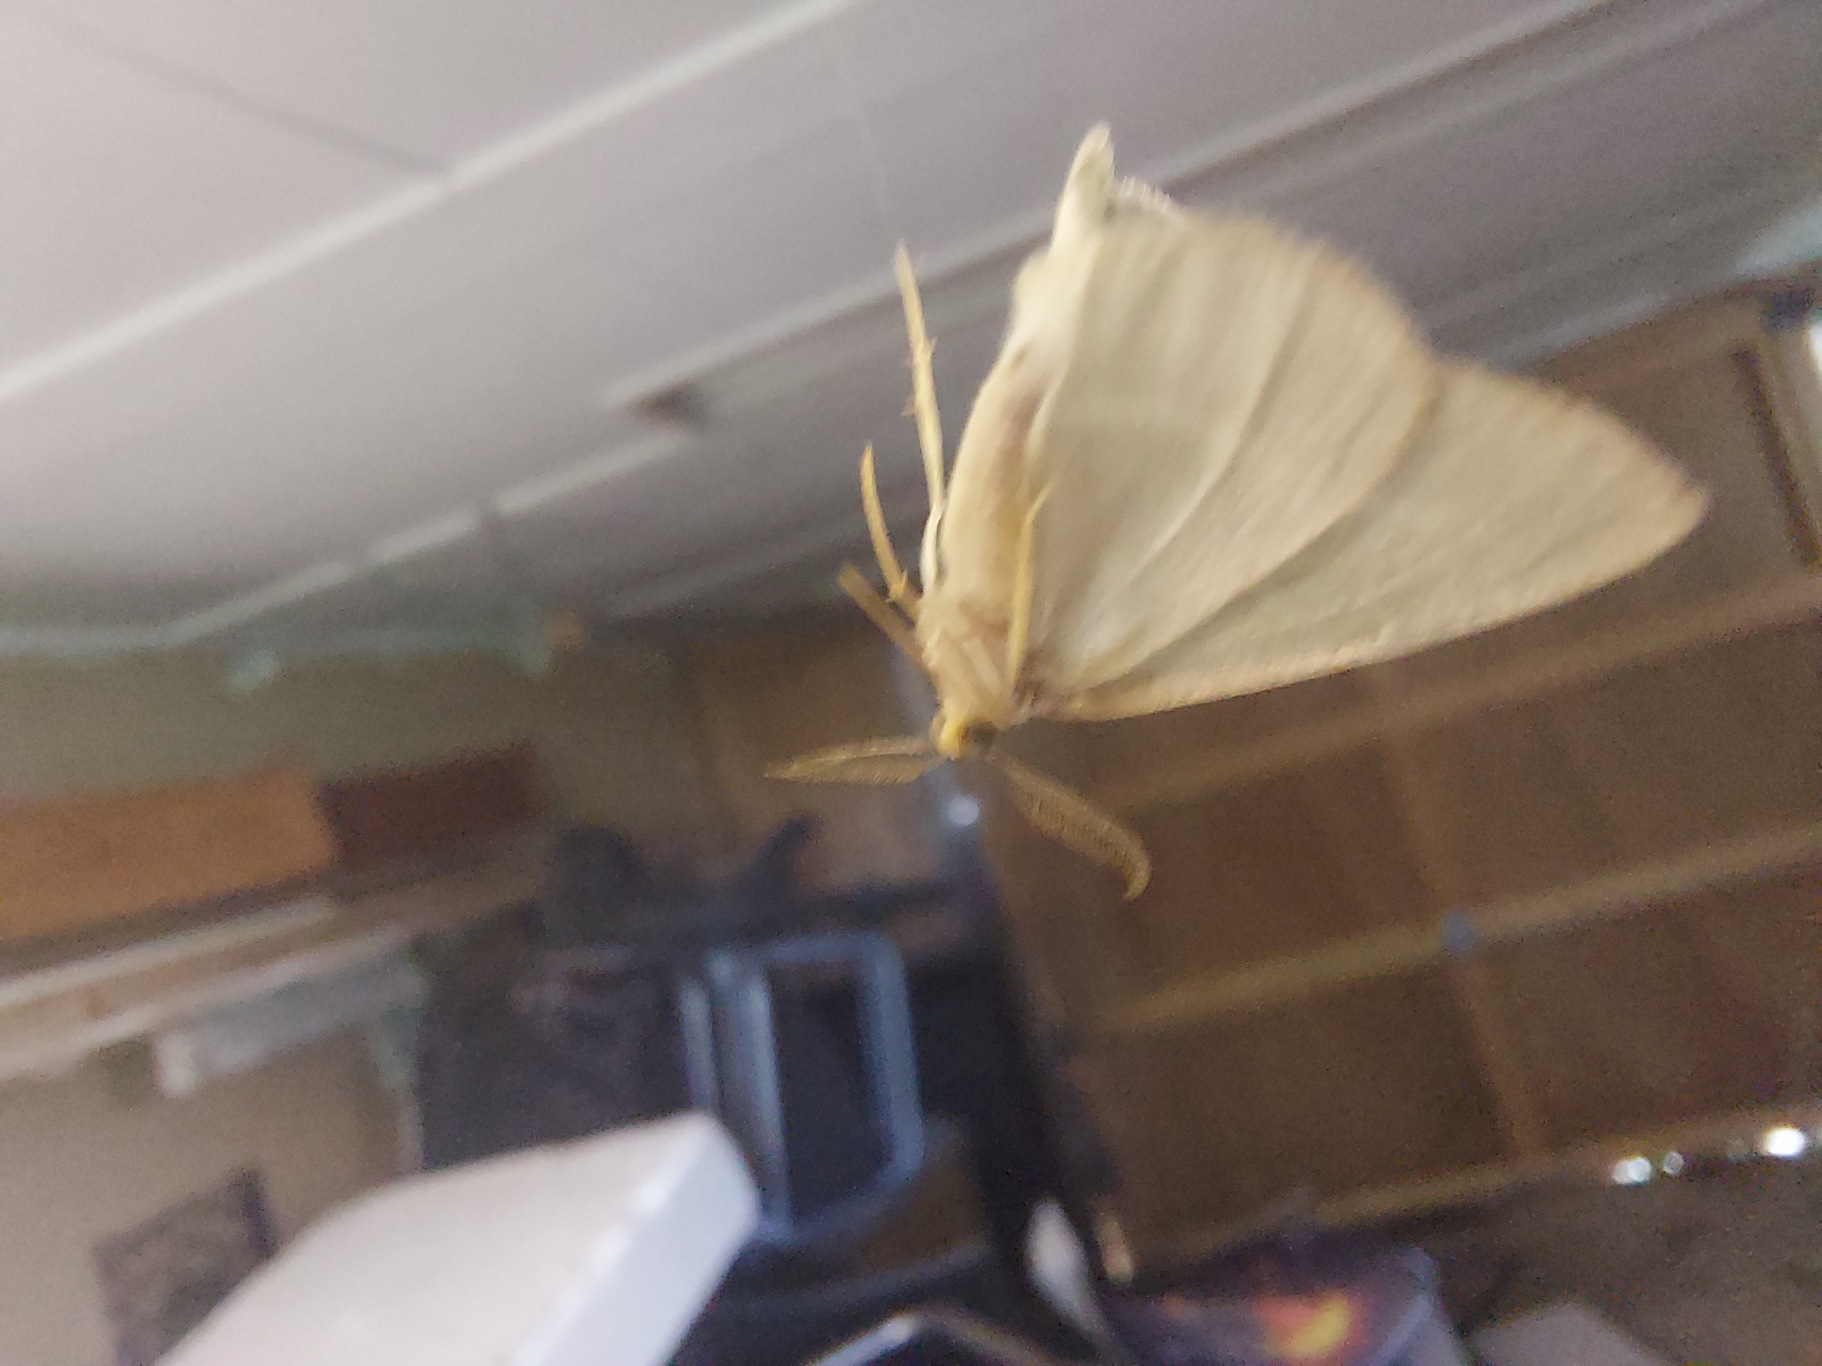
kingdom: Animalia
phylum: Arthropoda
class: Insecta
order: Lepidoptera
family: Geometridae
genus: Hylaea
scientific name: Hylaea fasciaria
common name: Nåleskovs-måler
